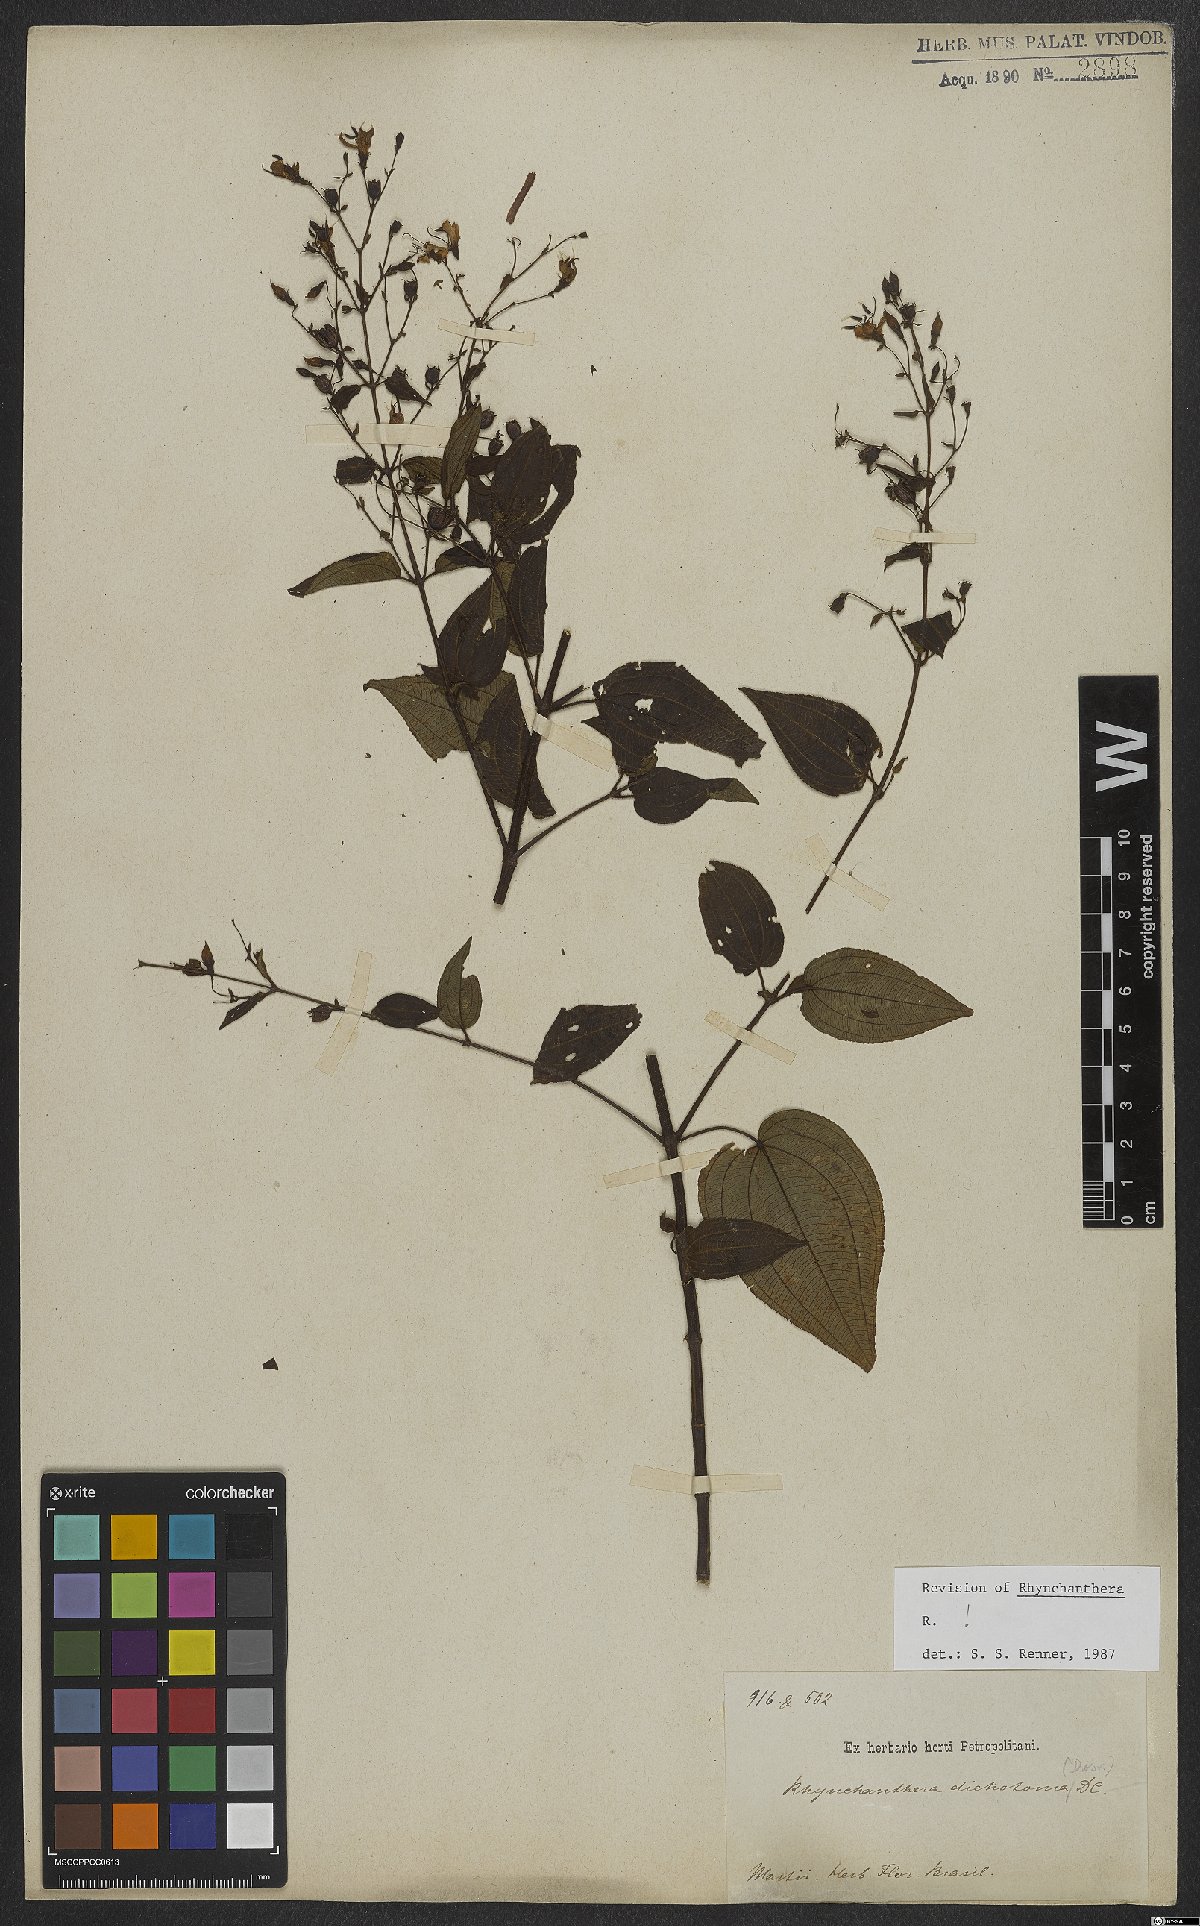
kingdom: Plantae
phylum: Tracheophyta
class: Magnoliopsida
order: Myrtales
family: Melastomataceae
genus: Rhynchanthera
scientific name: Rhynchanthera dichotoma
